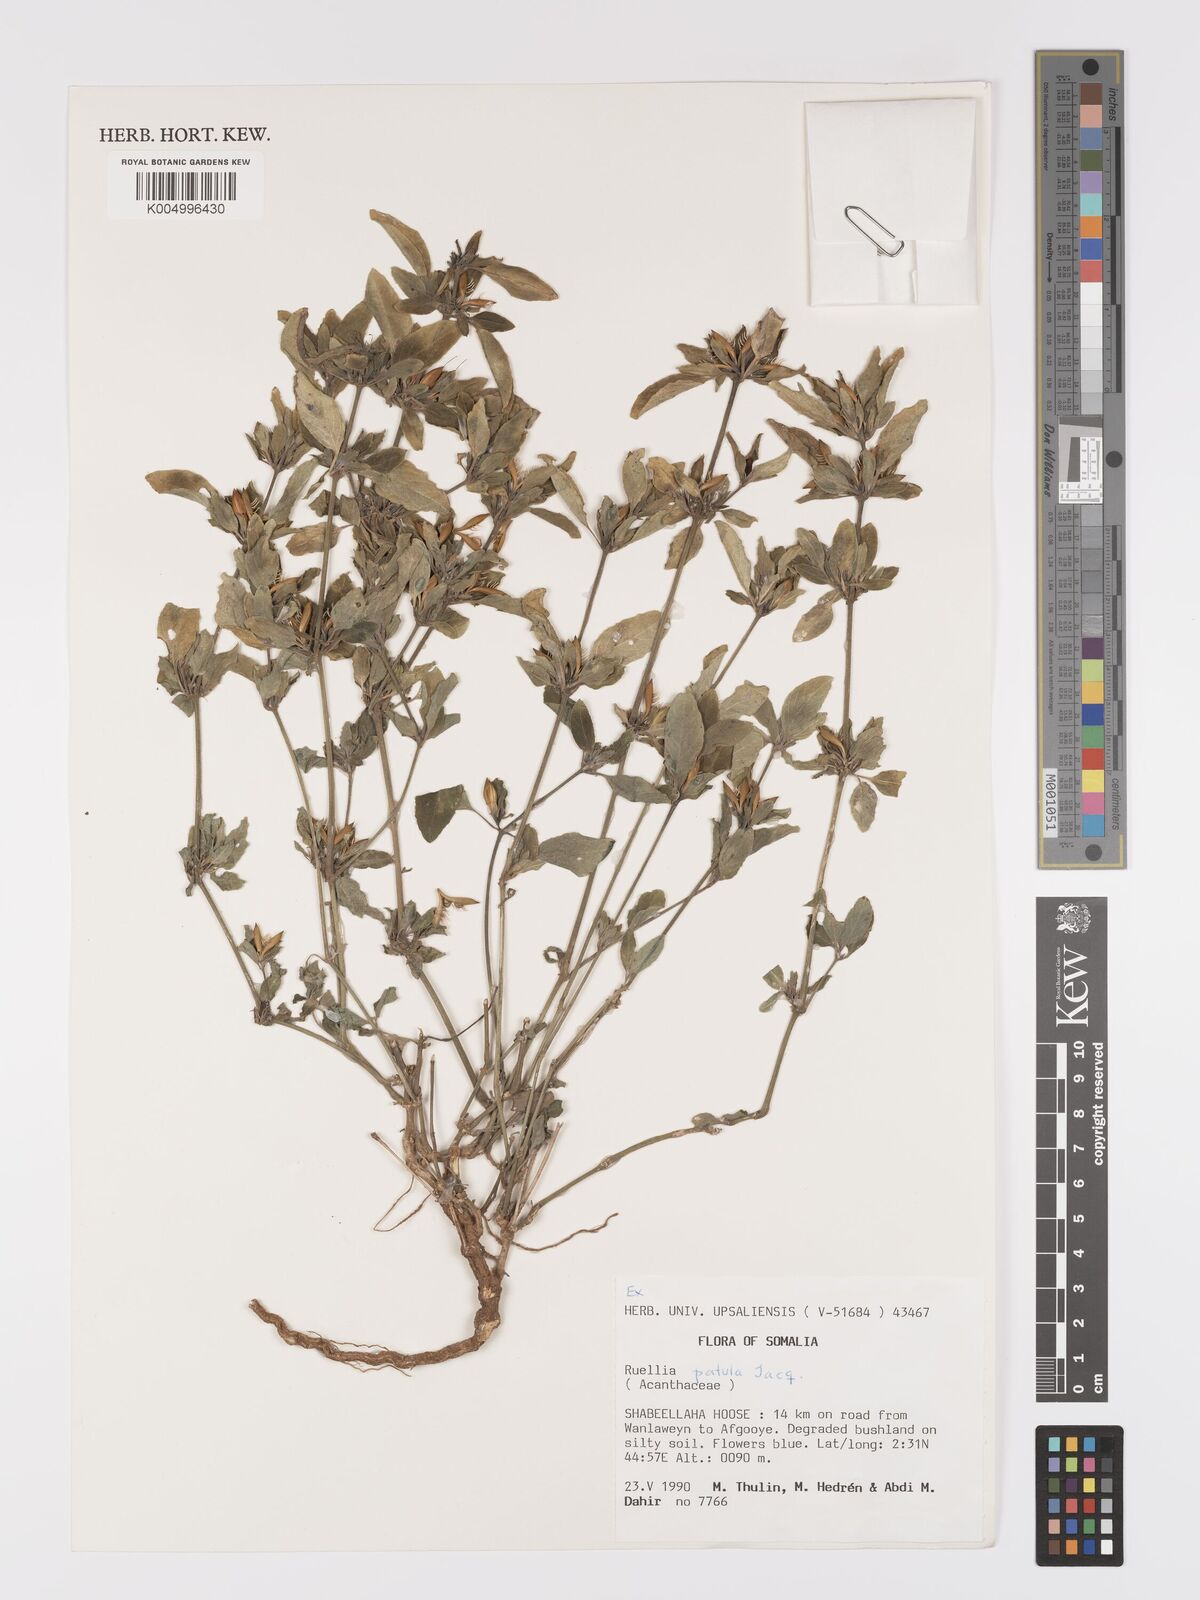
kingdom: Plantae
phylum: Tracheophyta
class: Magnoliopsida
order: Lamiales
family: Acanthaceae
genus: Ruellia
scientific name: Ruellia patula
